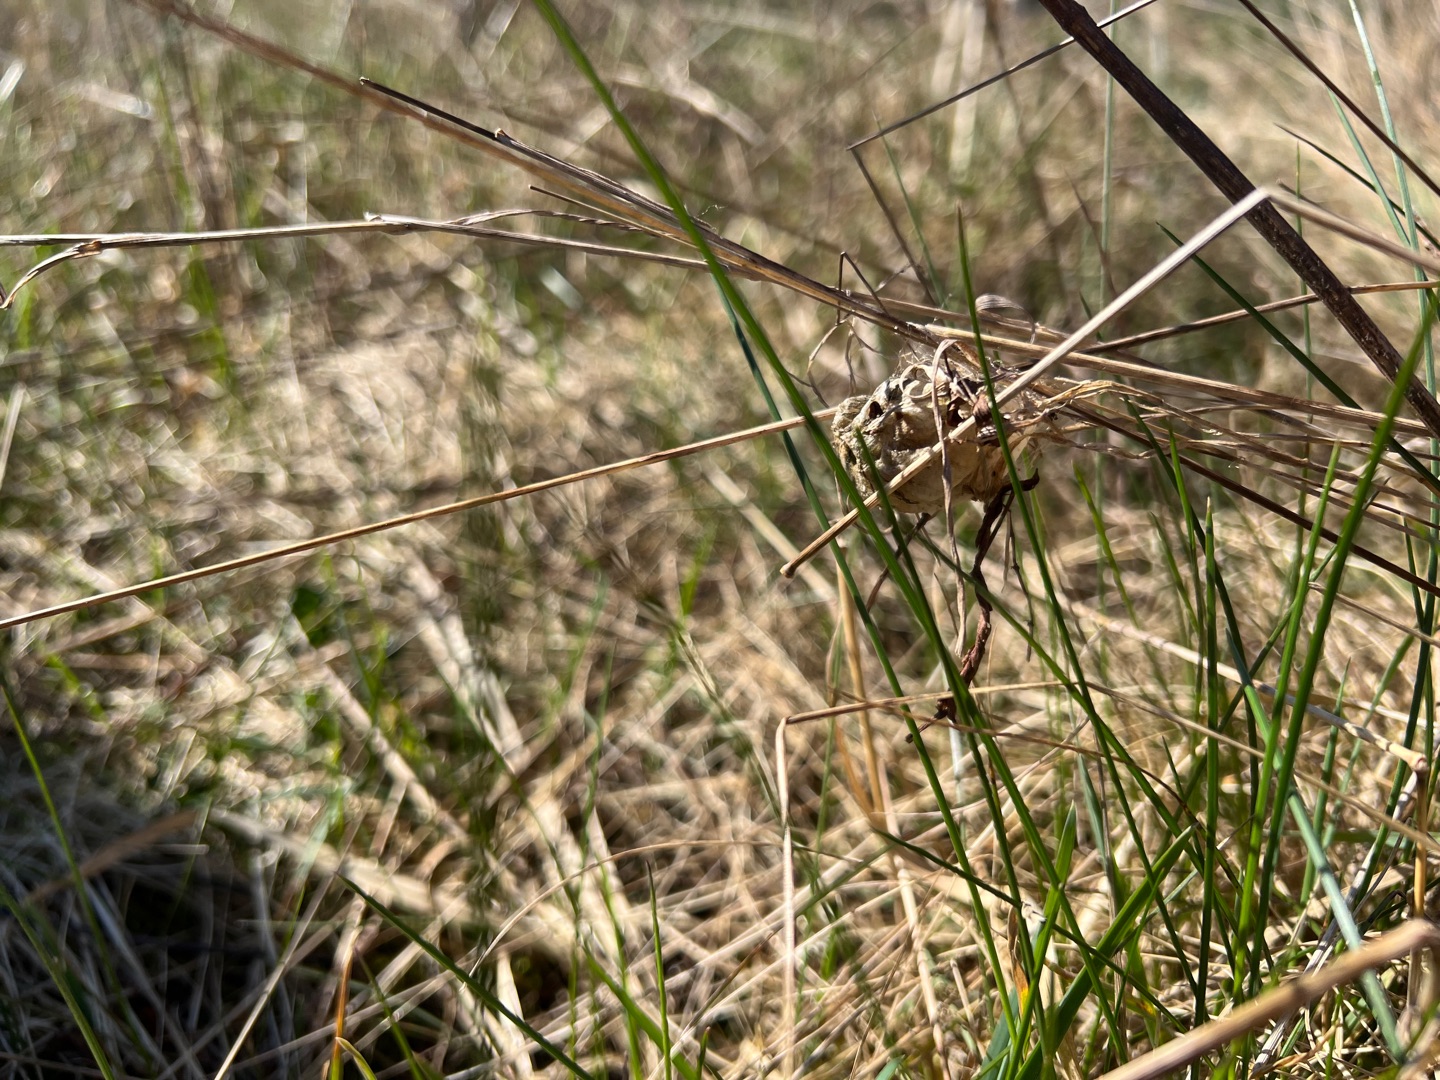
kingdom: Animalia
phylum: Arthropoda
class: Arachnida
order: Araneae
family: Araneidae
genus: Argiope
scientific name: Argiope bruennichi
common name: Hvepseedderkop
